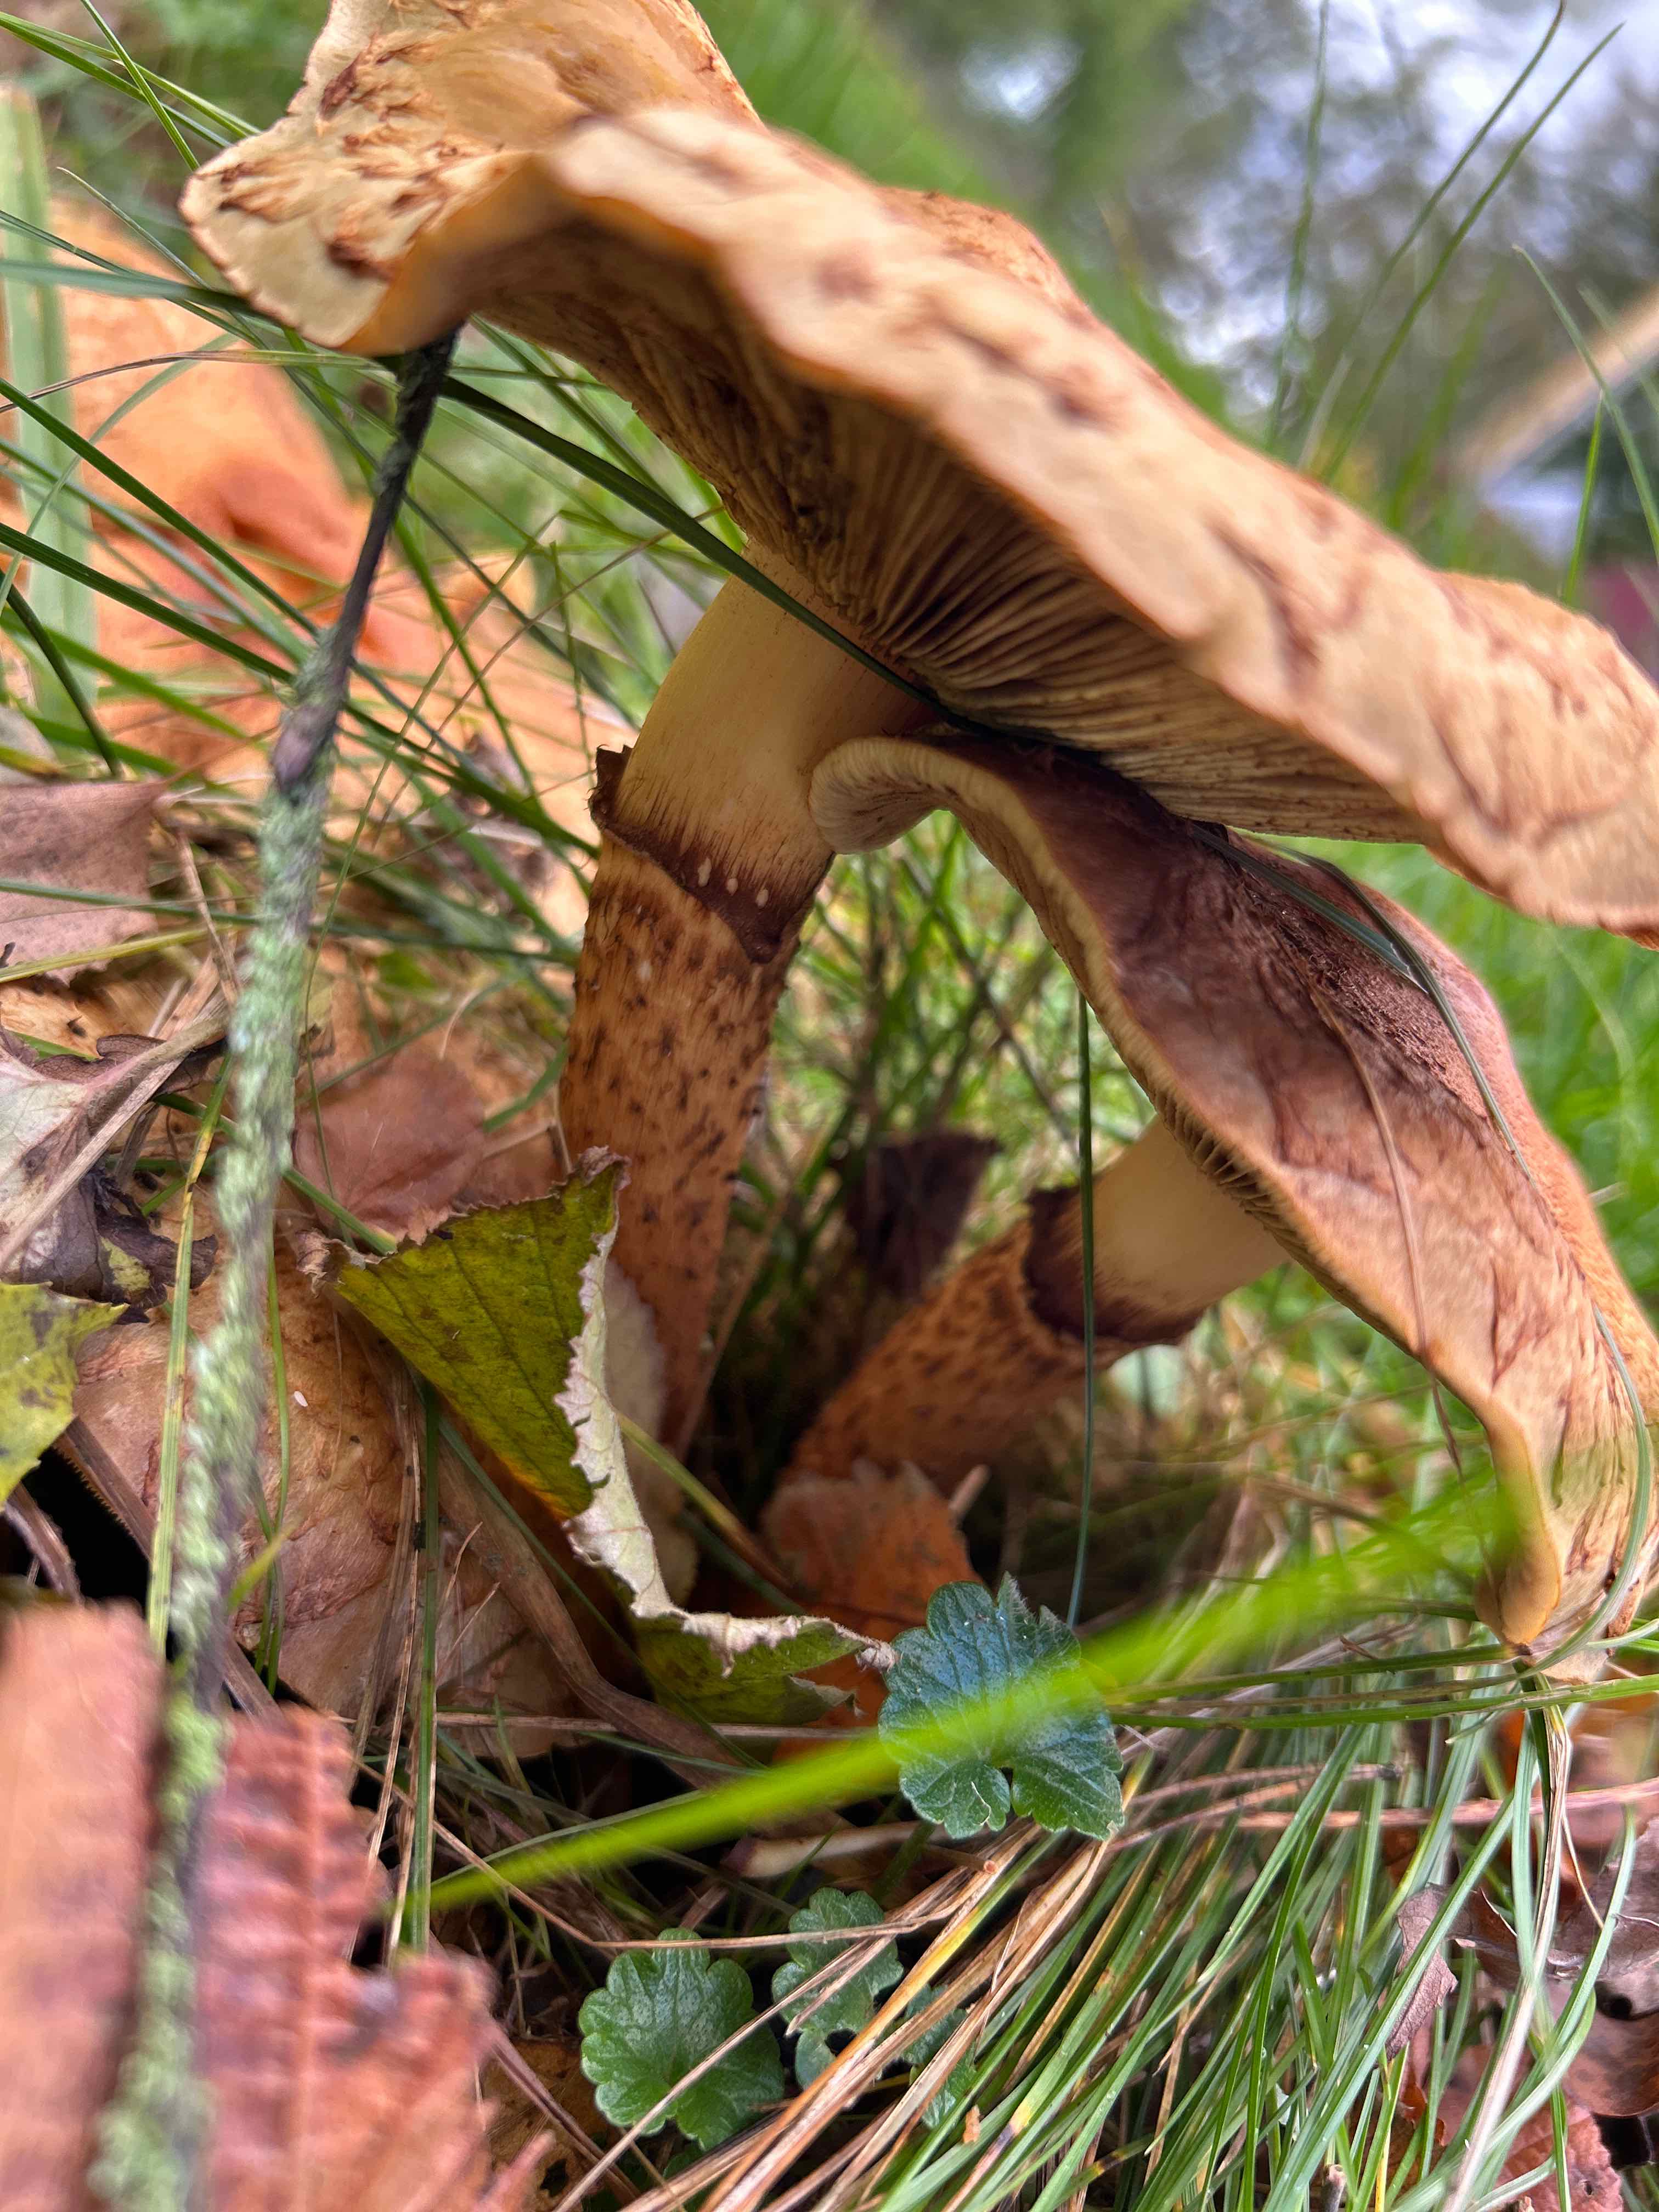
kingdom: Fungi
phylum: Basidiomycota
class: Agaricomycetes
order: Agaricales
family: Strophariaceae
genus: Pholiota
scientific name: Pholiota squarrosa
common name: krumskællet skælhat
